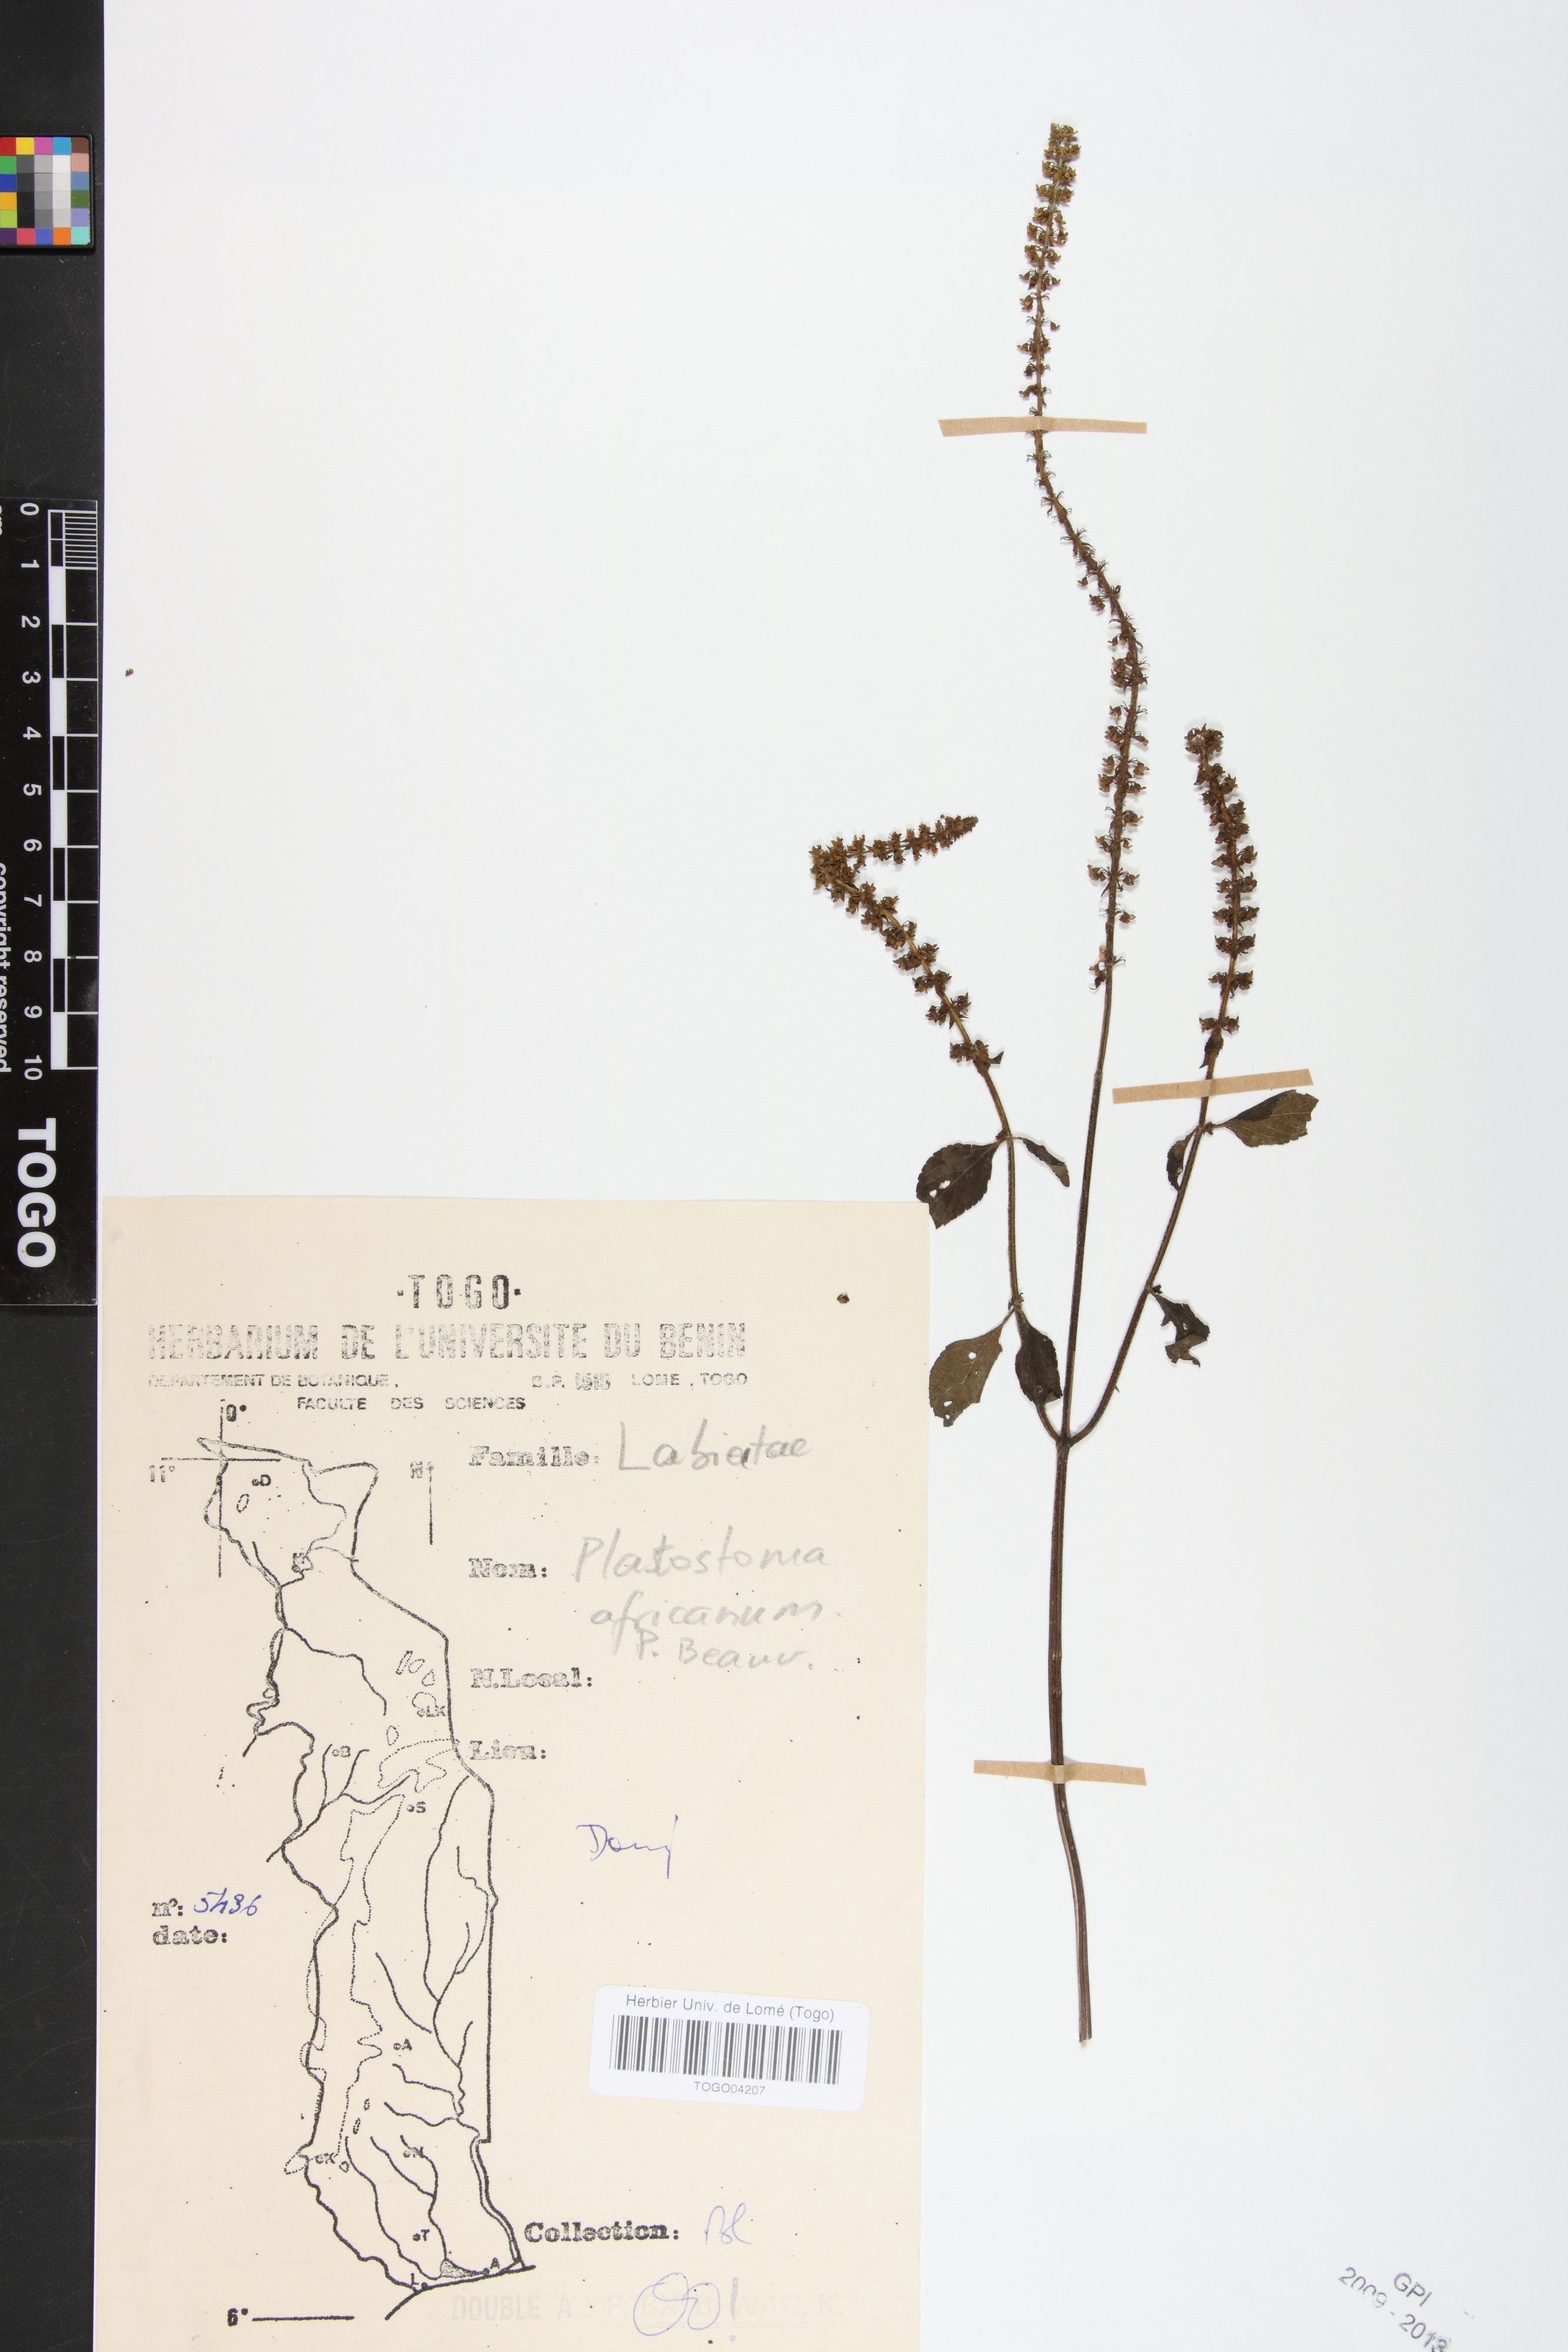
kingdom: Plantae
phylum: Tracheophyta
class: Magnoliopsida
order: Lamiales
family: Lamiaceae
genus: Platostoma
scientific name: Platostoma africanum
